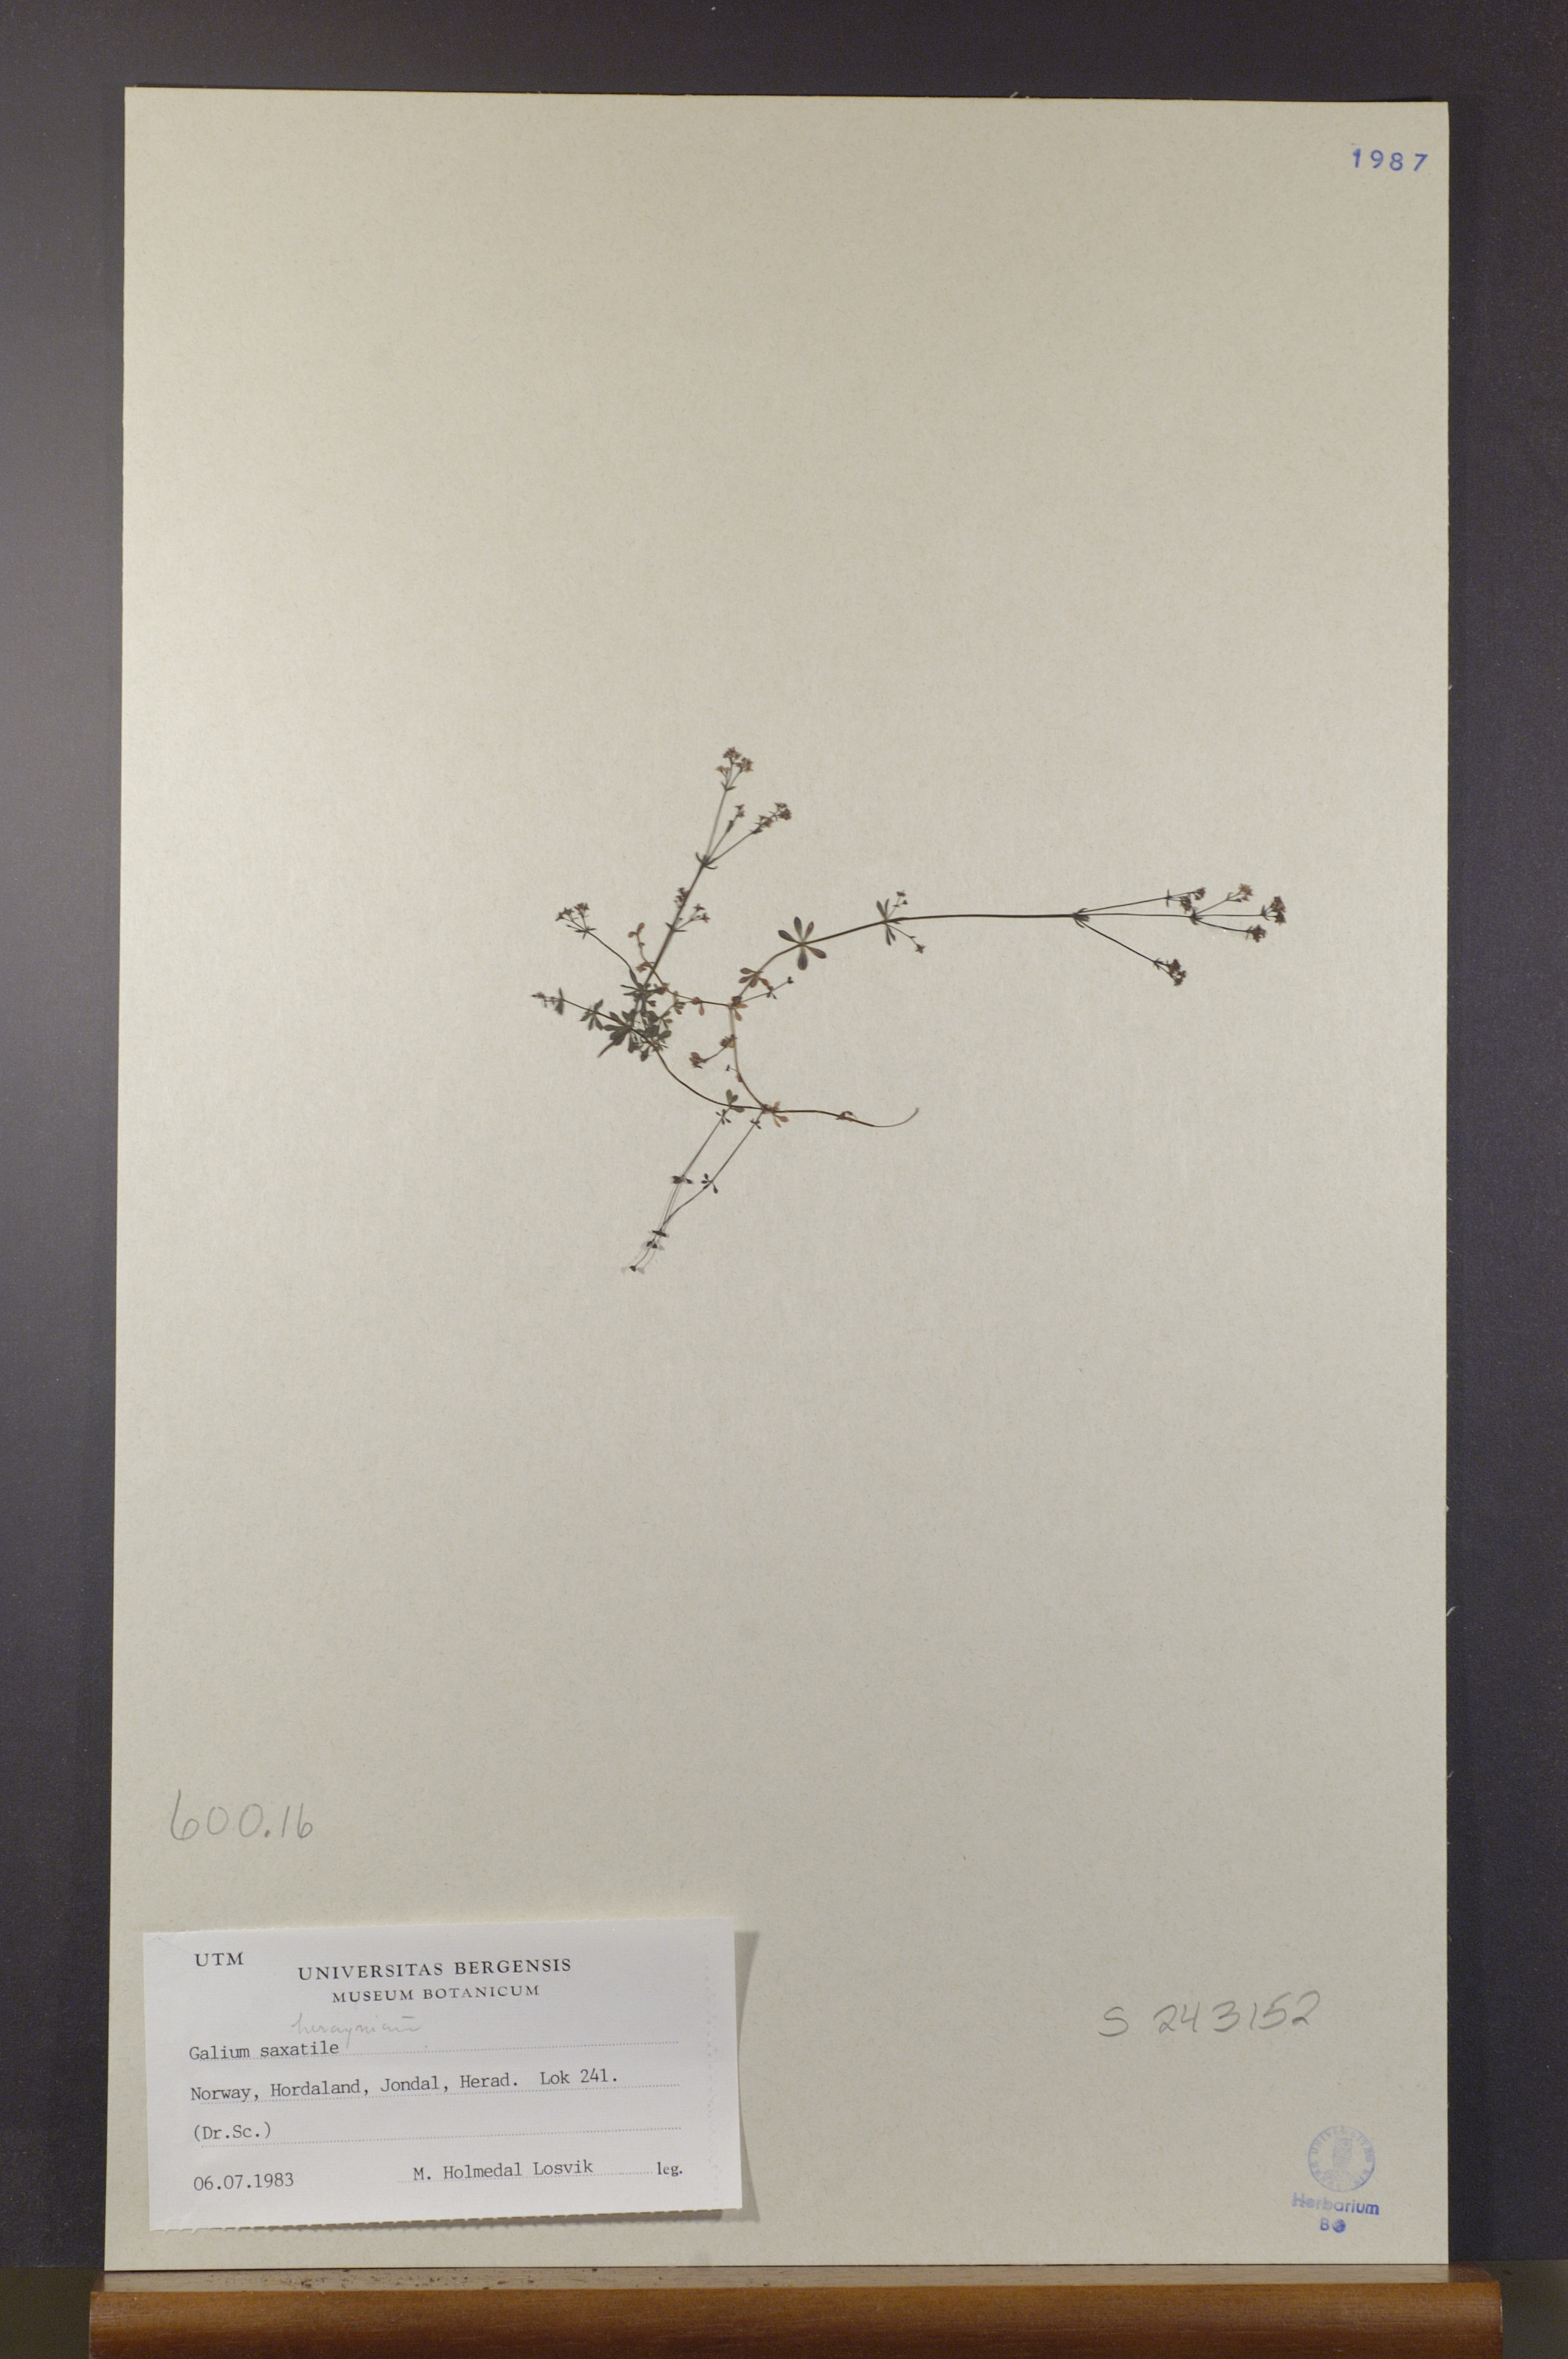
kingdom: Plantae
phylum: Tracheophyta
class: Magnoliopsida
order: Gentianales
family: Rubiaceae
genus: Galium
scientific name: Galium saxatile
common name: Heath bedstraw
